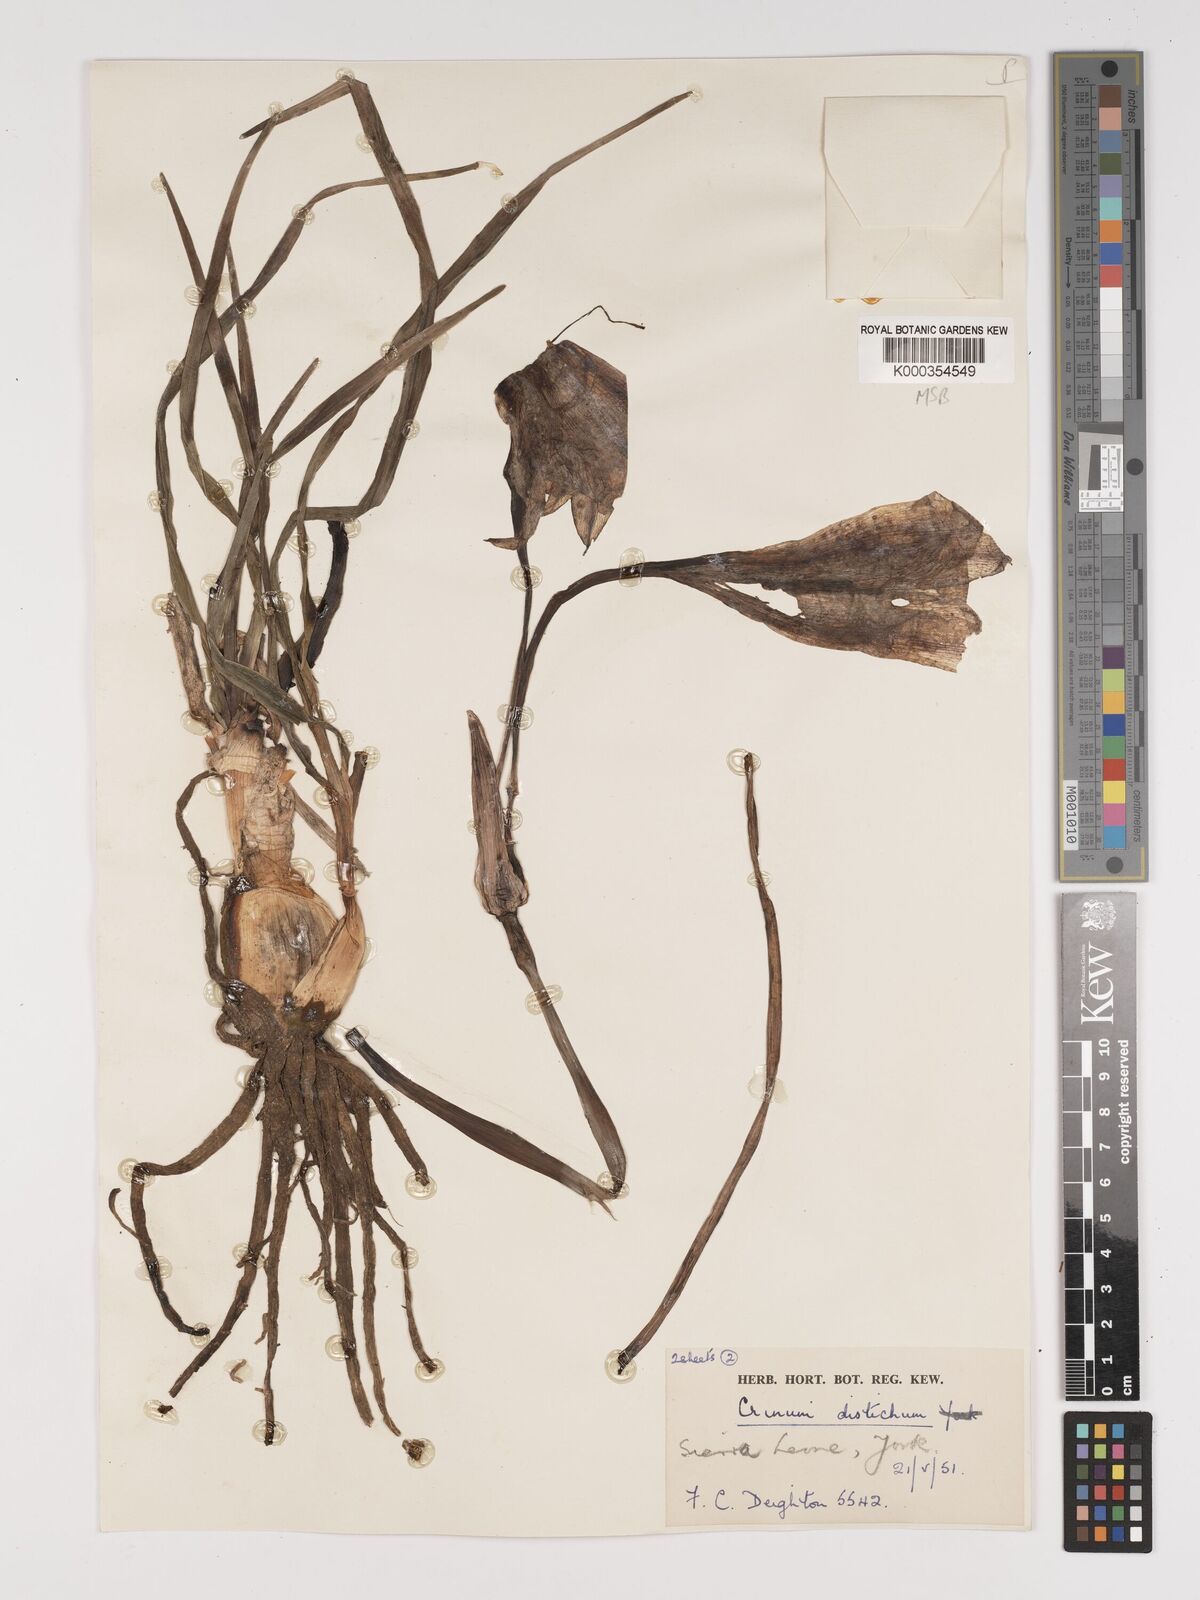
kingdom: Plantae
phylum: Tracheophyta
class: Liliopsida
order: Asparagales
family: Amaryllidaceae
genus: Crinum
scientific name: Crinum zeylanicum
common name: Ceylon swamplily
